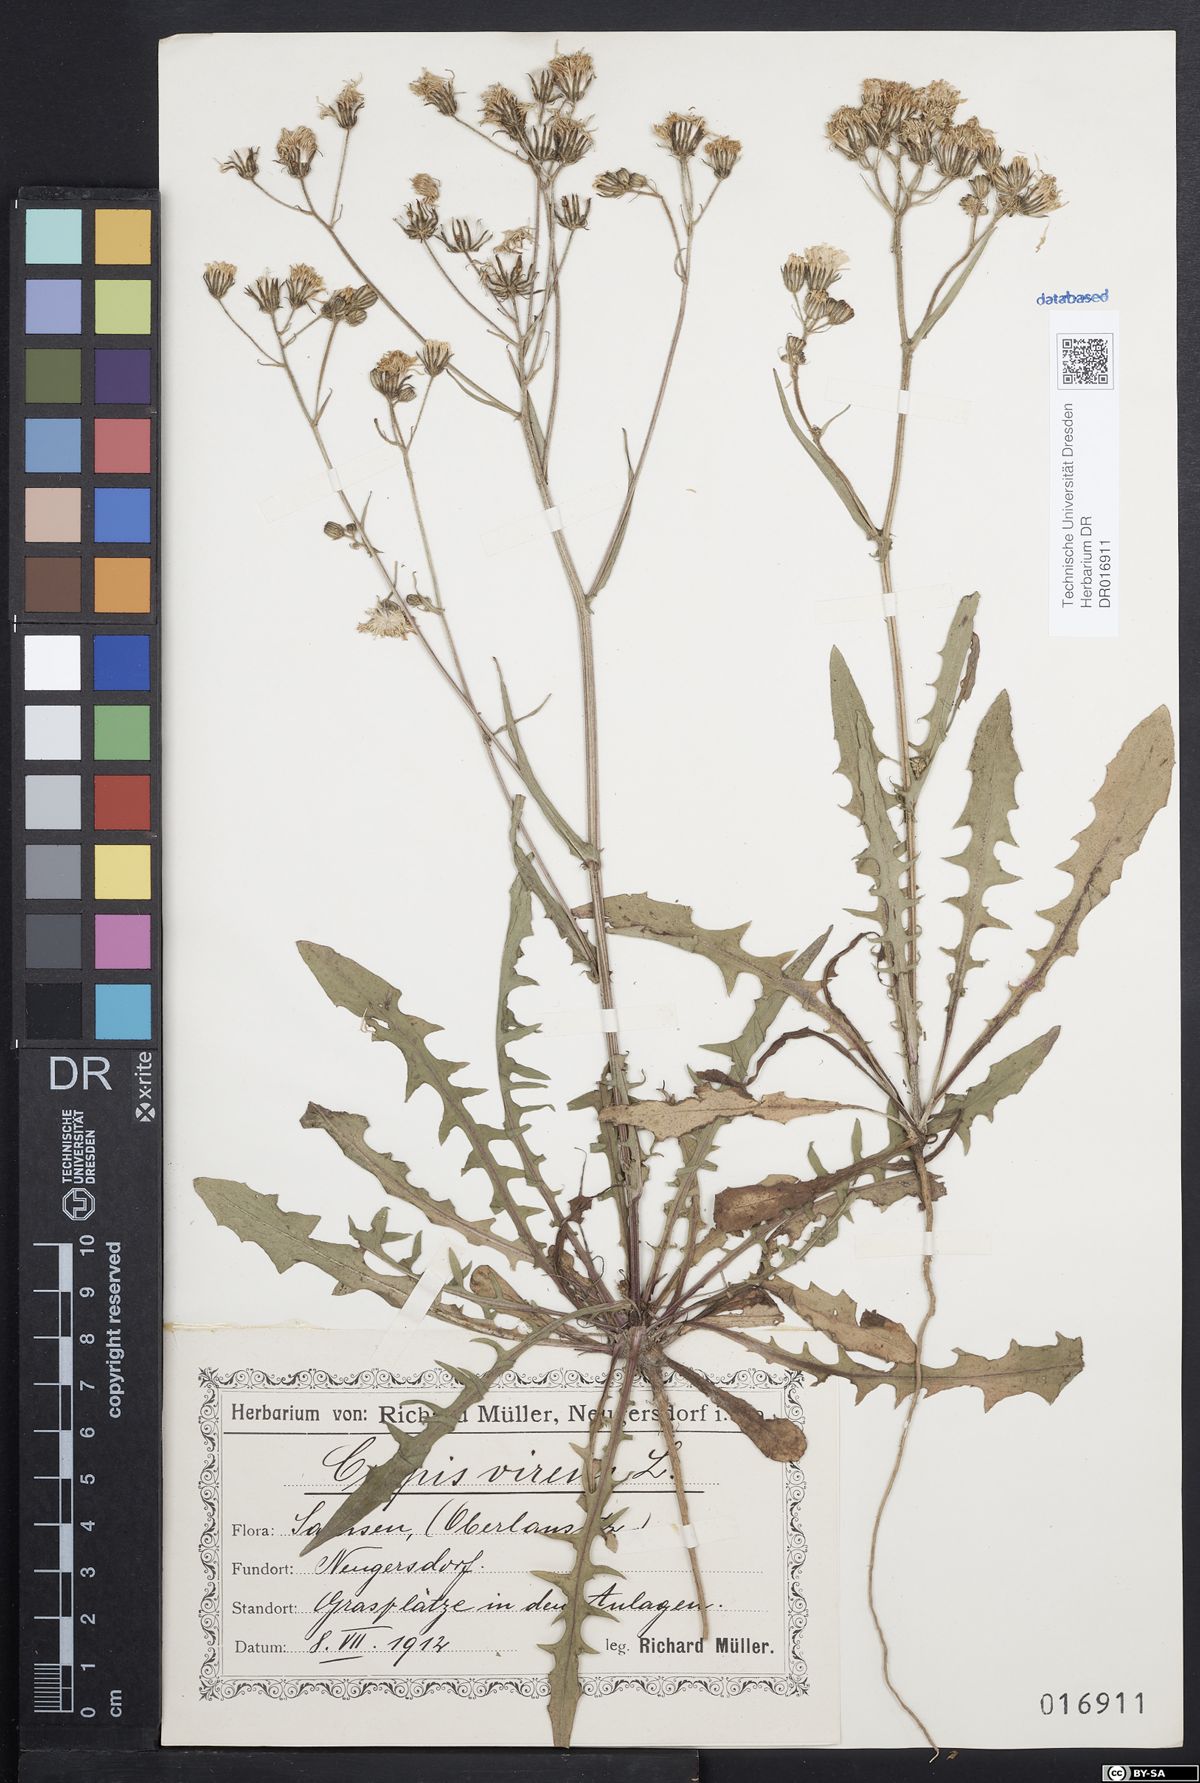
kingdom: Plantae
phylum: Tracheophyta
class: Magnoliopsida
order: Asterales
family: Asteraceae
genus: Crepis
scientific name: Crepis capillaris
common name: Smooth hawksbeard
